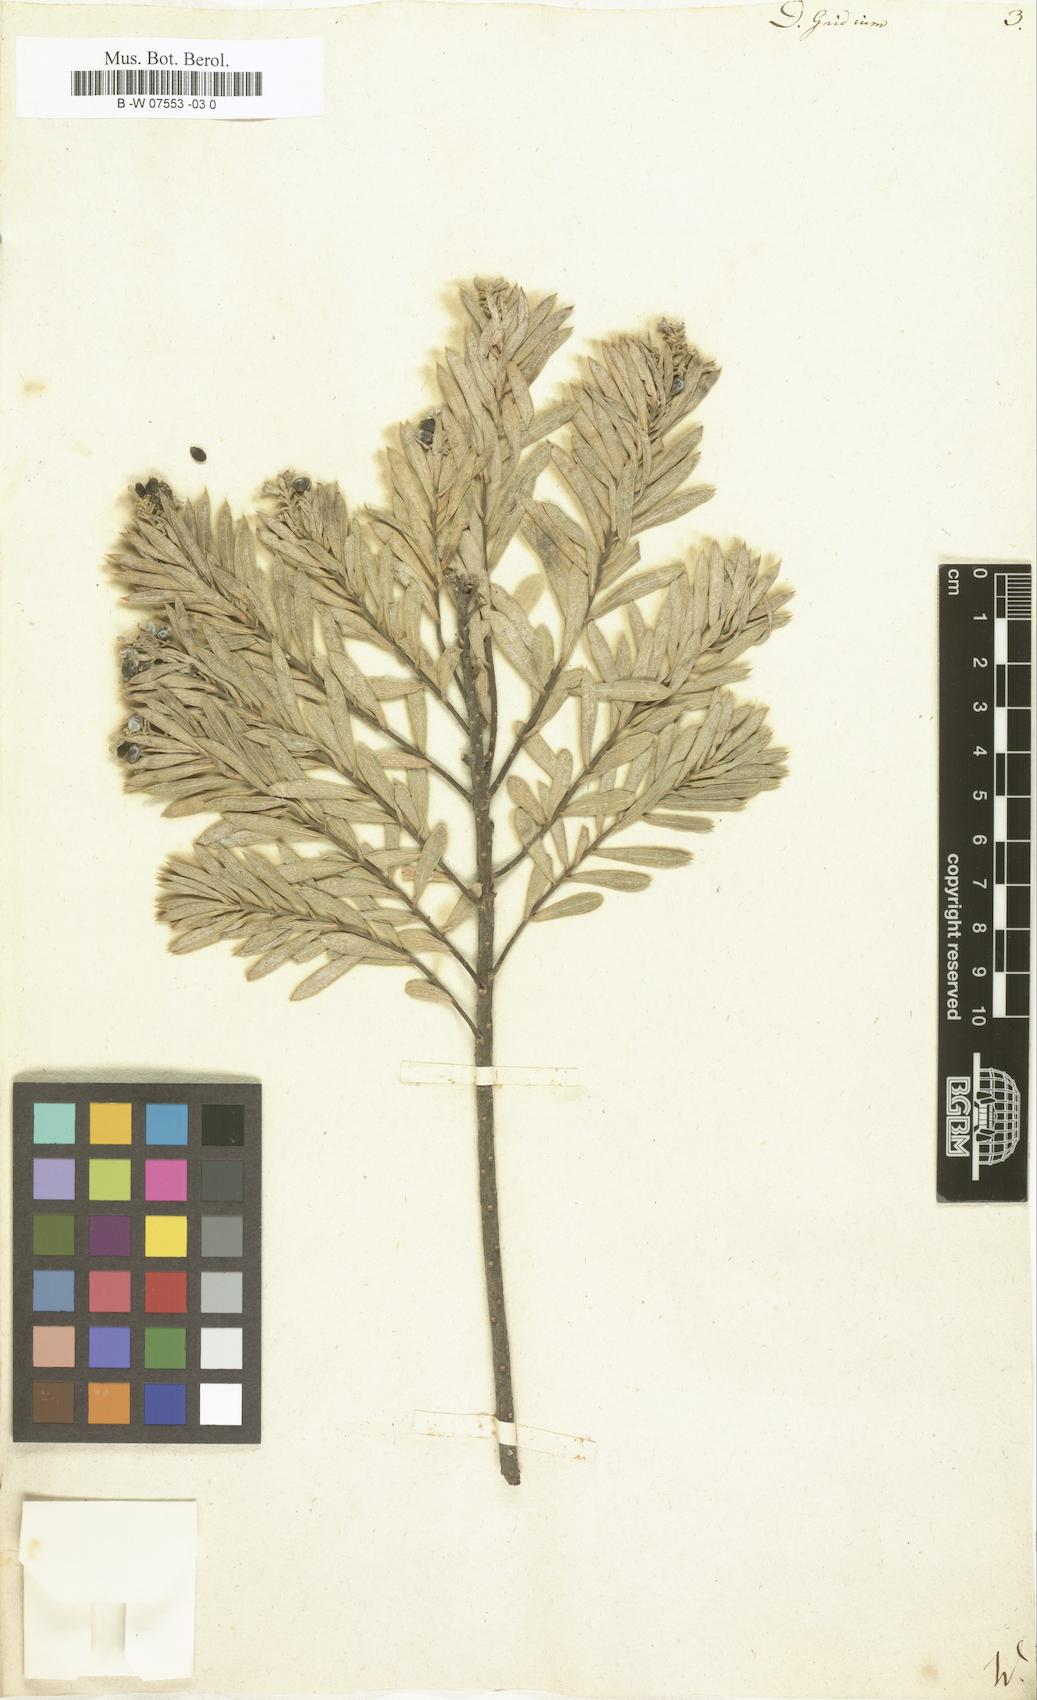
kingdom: Plantae
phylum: Tracheophyta
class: Magnoliopsida
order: Malvales
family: Thymelaeaceae
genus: Daphne
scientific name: Daphne gnidium
